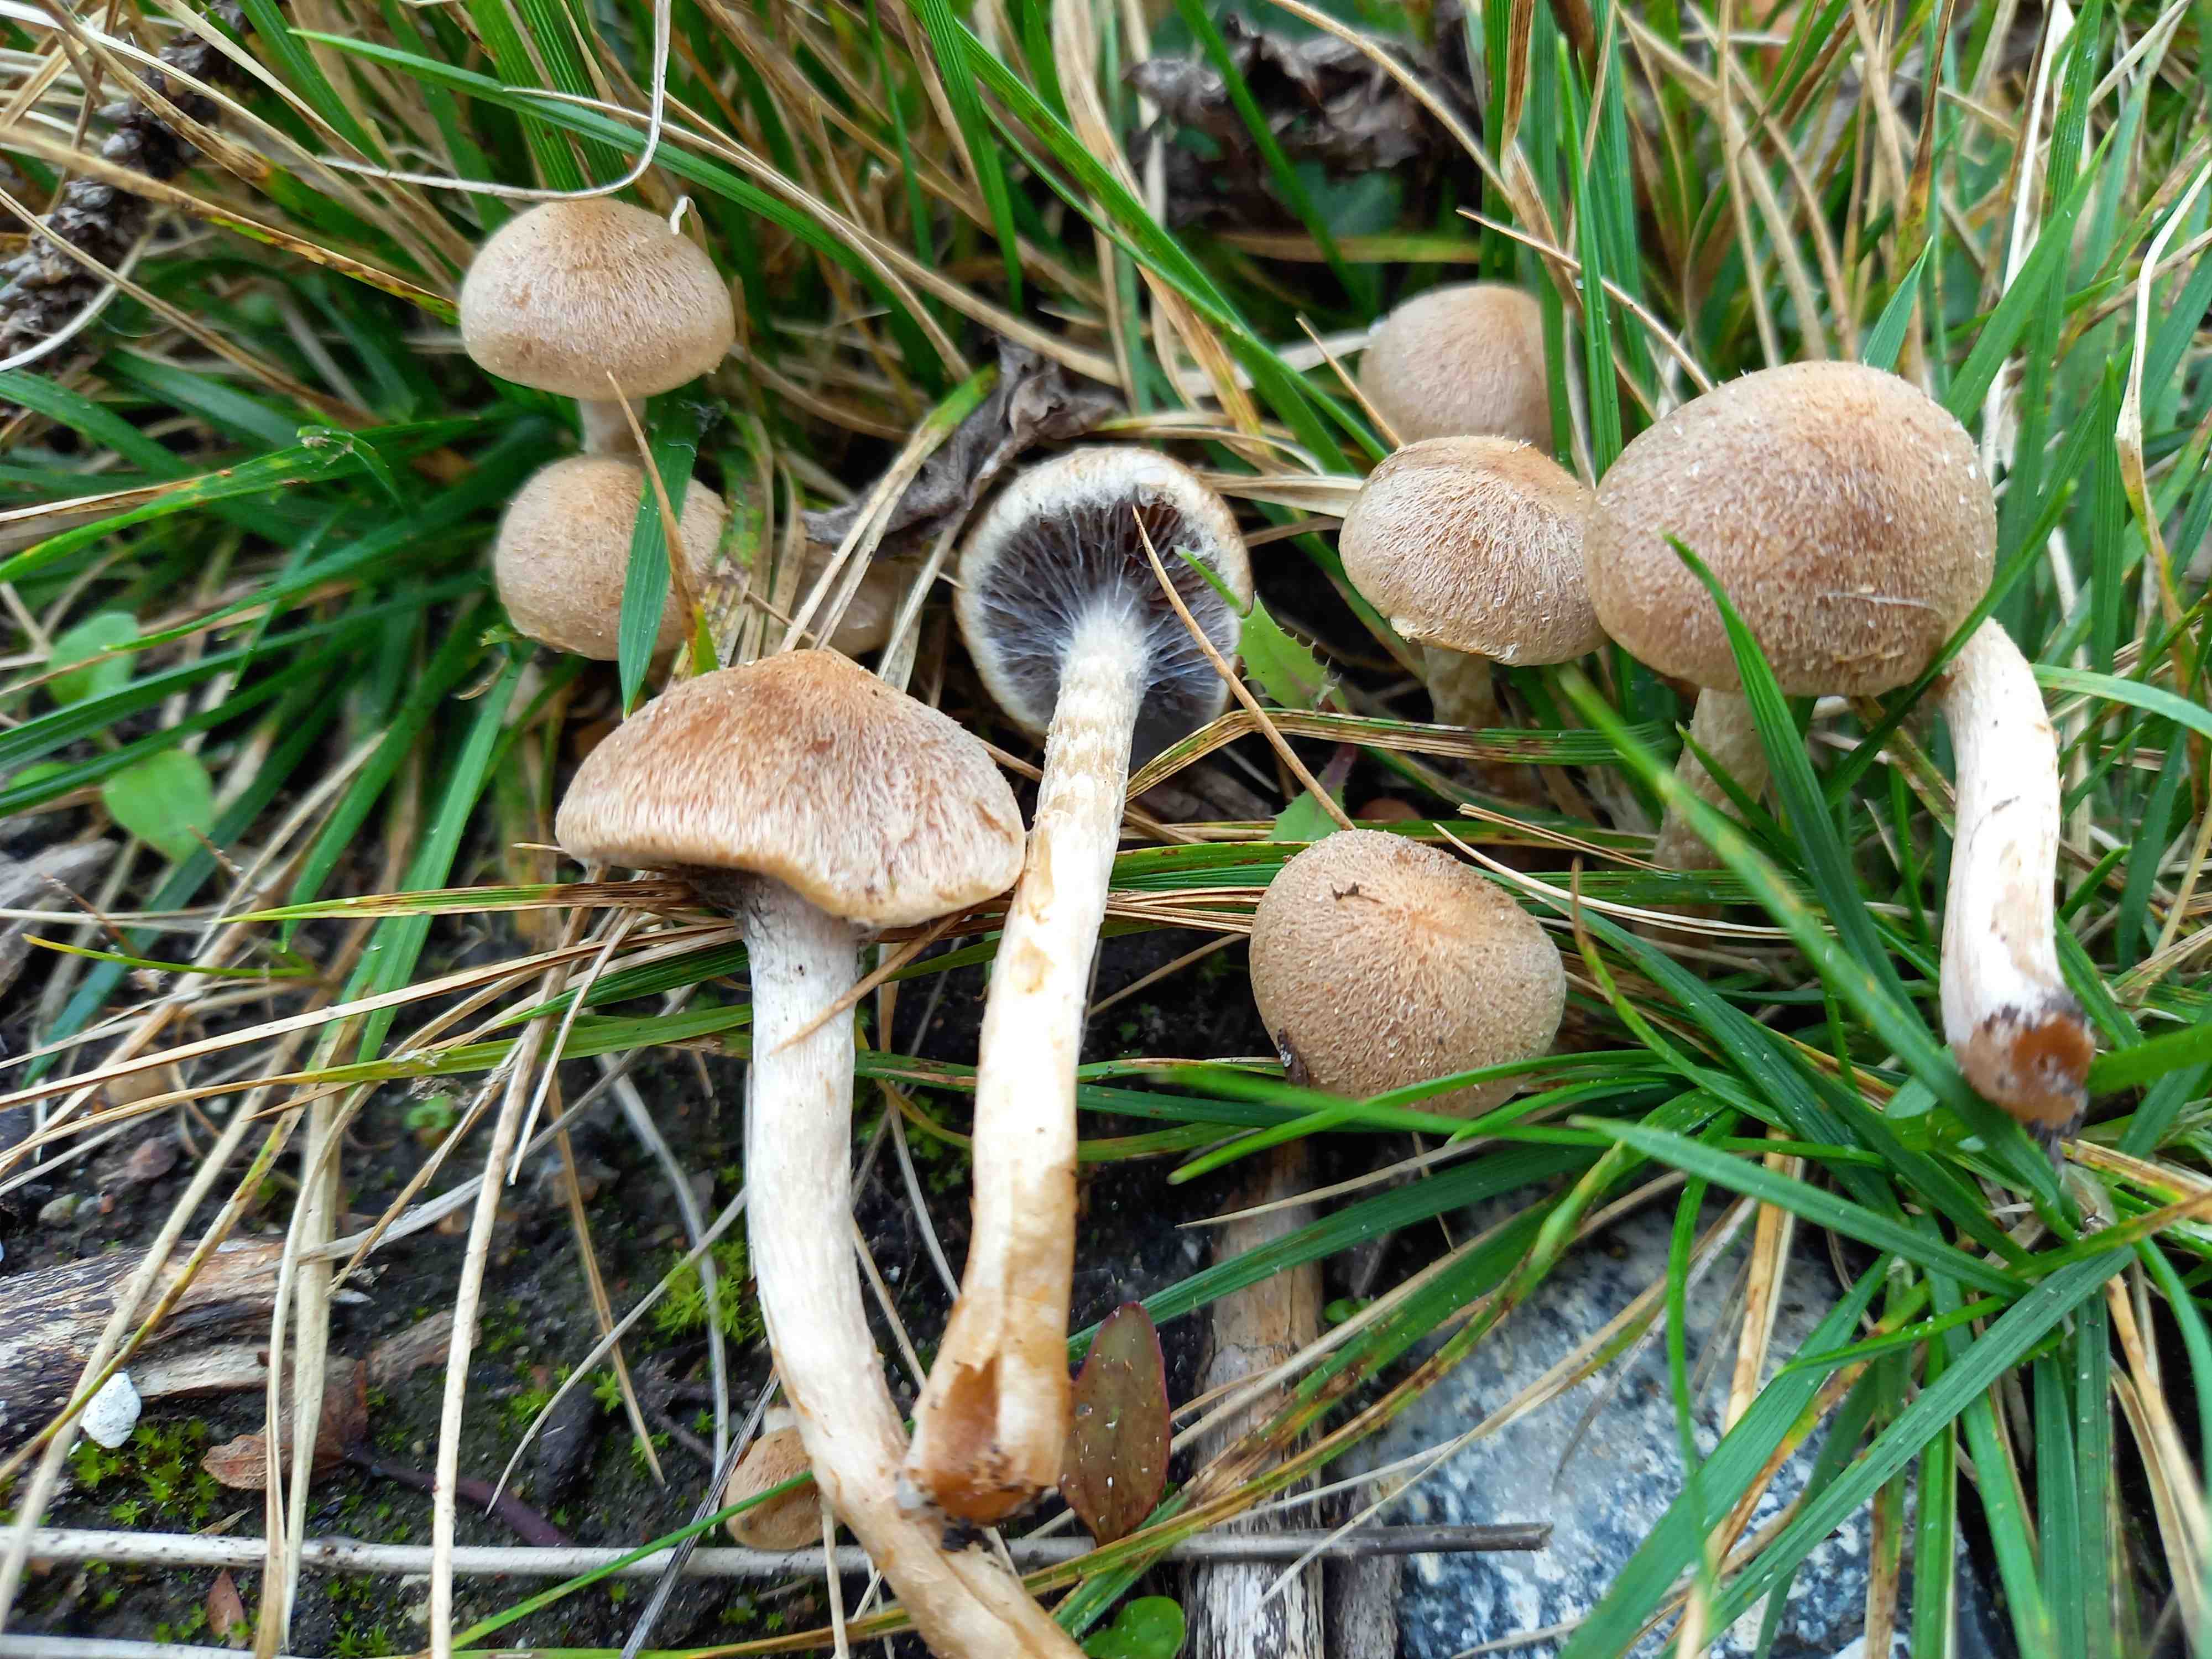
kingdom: Fungi
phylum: Basidiomycota
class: Agaricomycetes
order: Agaricales
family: Psathyrellaceae
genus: Lacrymaria
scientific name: Lacrymaria lacrymabunda
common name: grædende mørkhat
